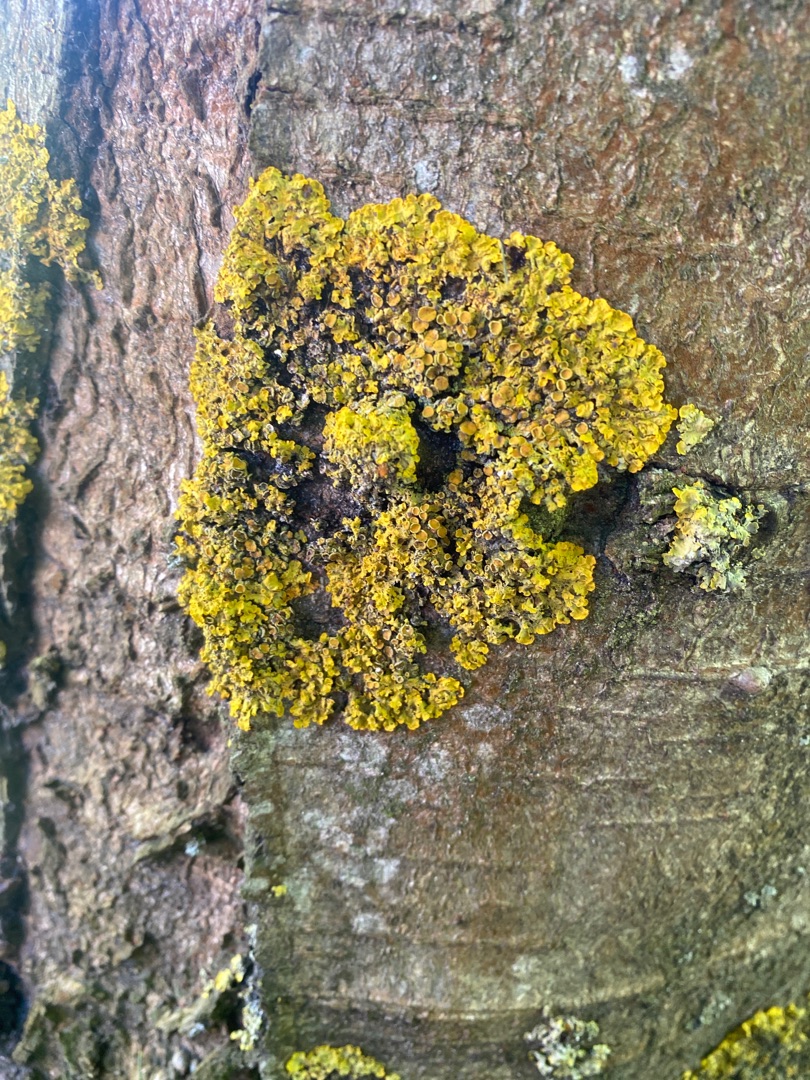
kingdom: Fungi
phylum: Ascomycota
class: Lecanoromycetes
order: Teloschistales
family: Teloschistaceae
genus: Xanthoria
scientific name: Xanthoria parietina
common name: Almindelig væggelav
